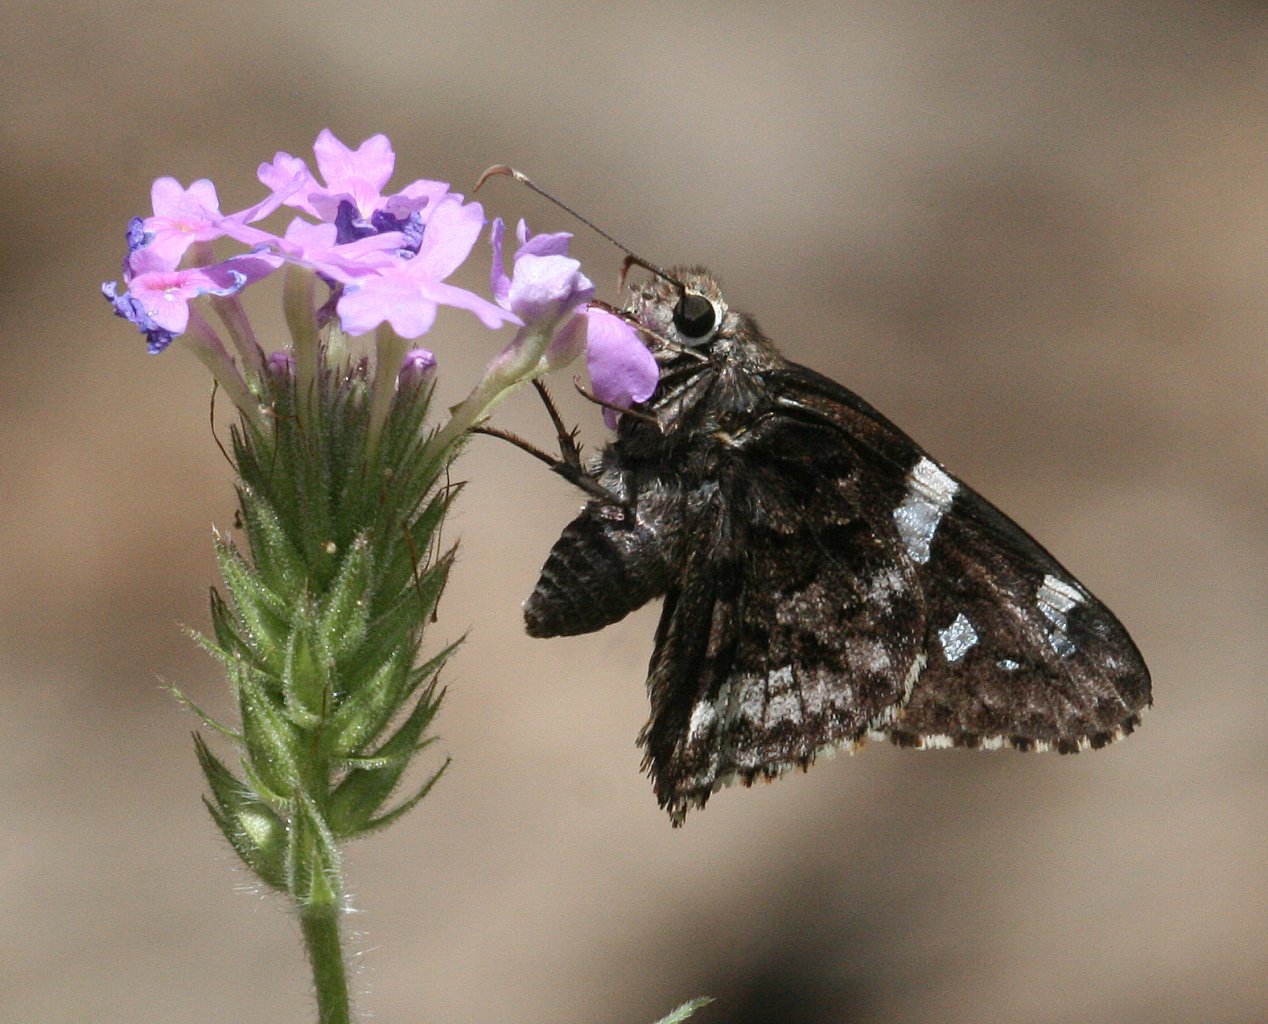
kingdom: Animalia
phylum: Arthropoda
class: Insecta
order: Lepidoptera
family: Hesperiidae
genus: Codatractus
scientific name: Codatractus arizonensis
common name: Arizona Skipper
